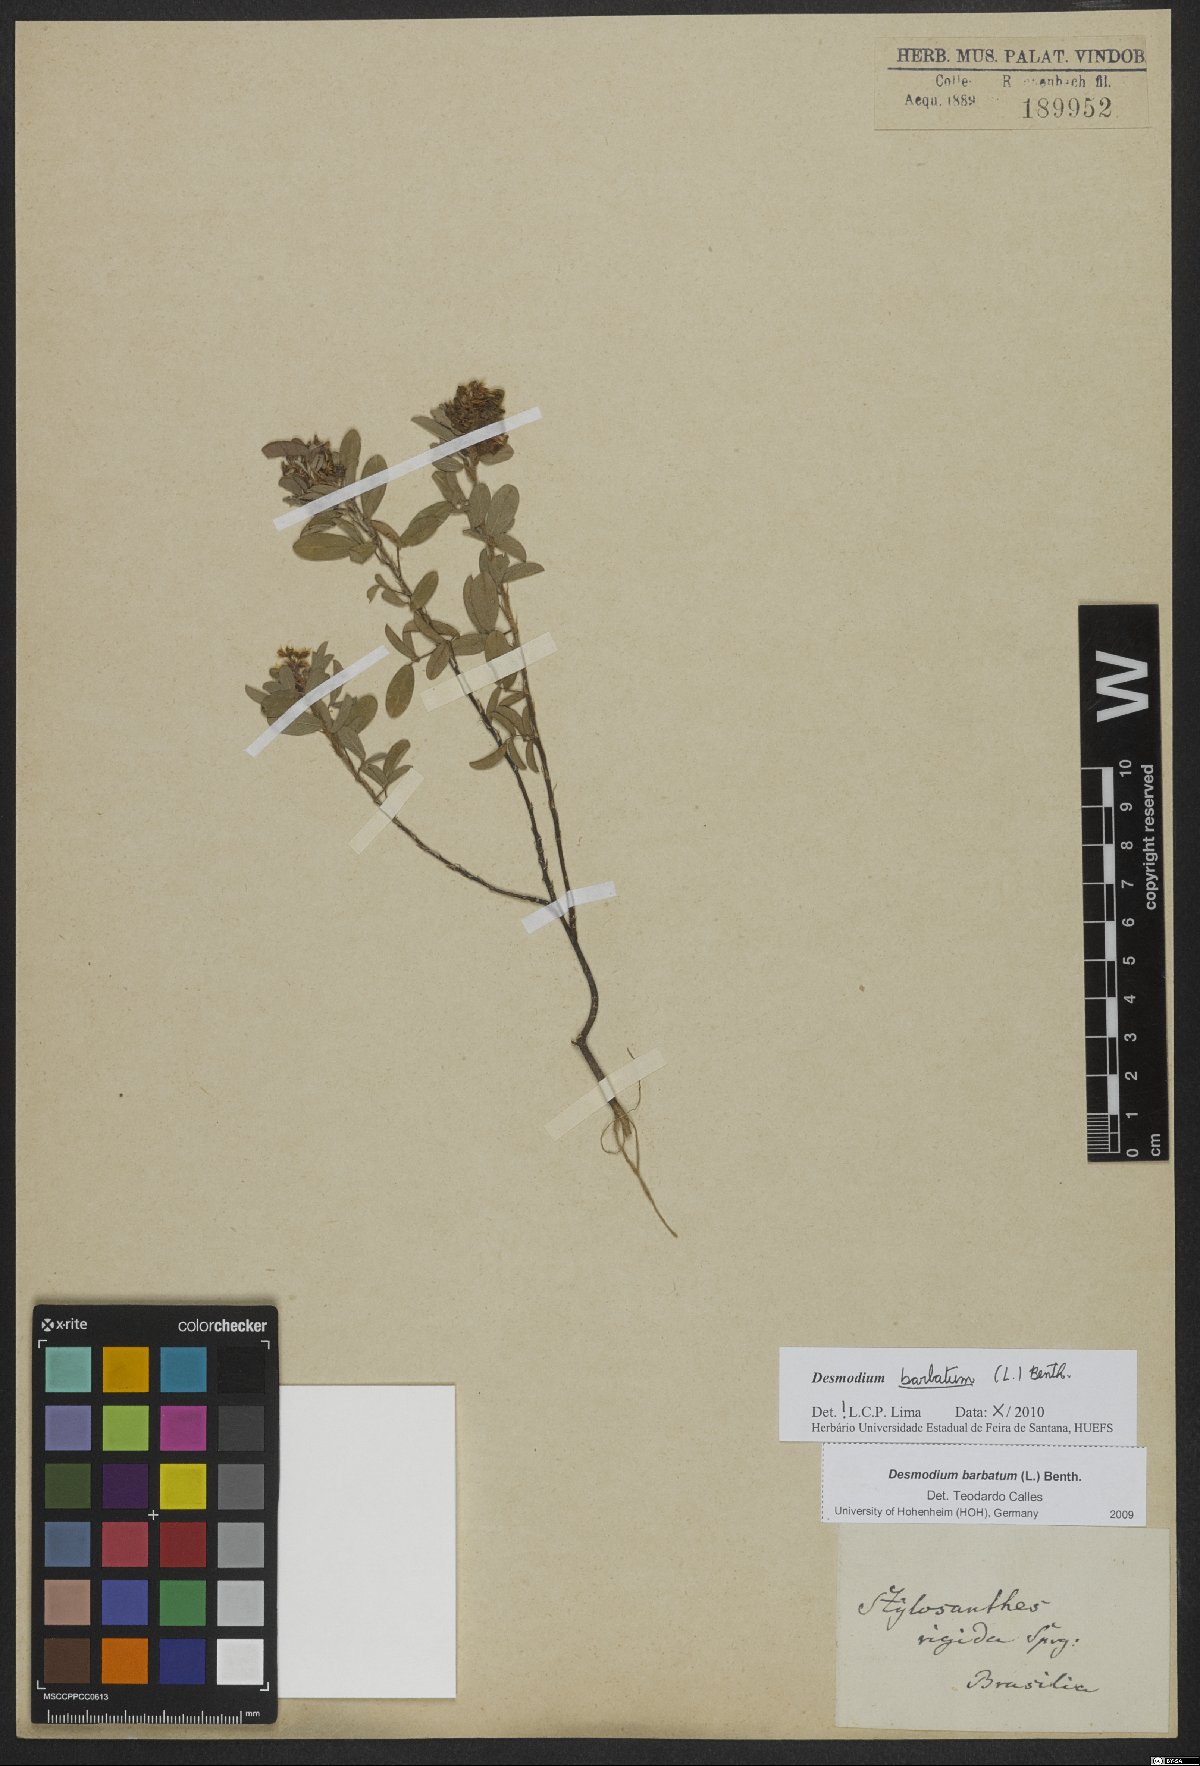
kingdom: Plantae
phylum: Tracheophyta
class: Magnoliopsida
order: Fabales
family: Fabaceae
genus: Grona
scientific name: Grona barbata
